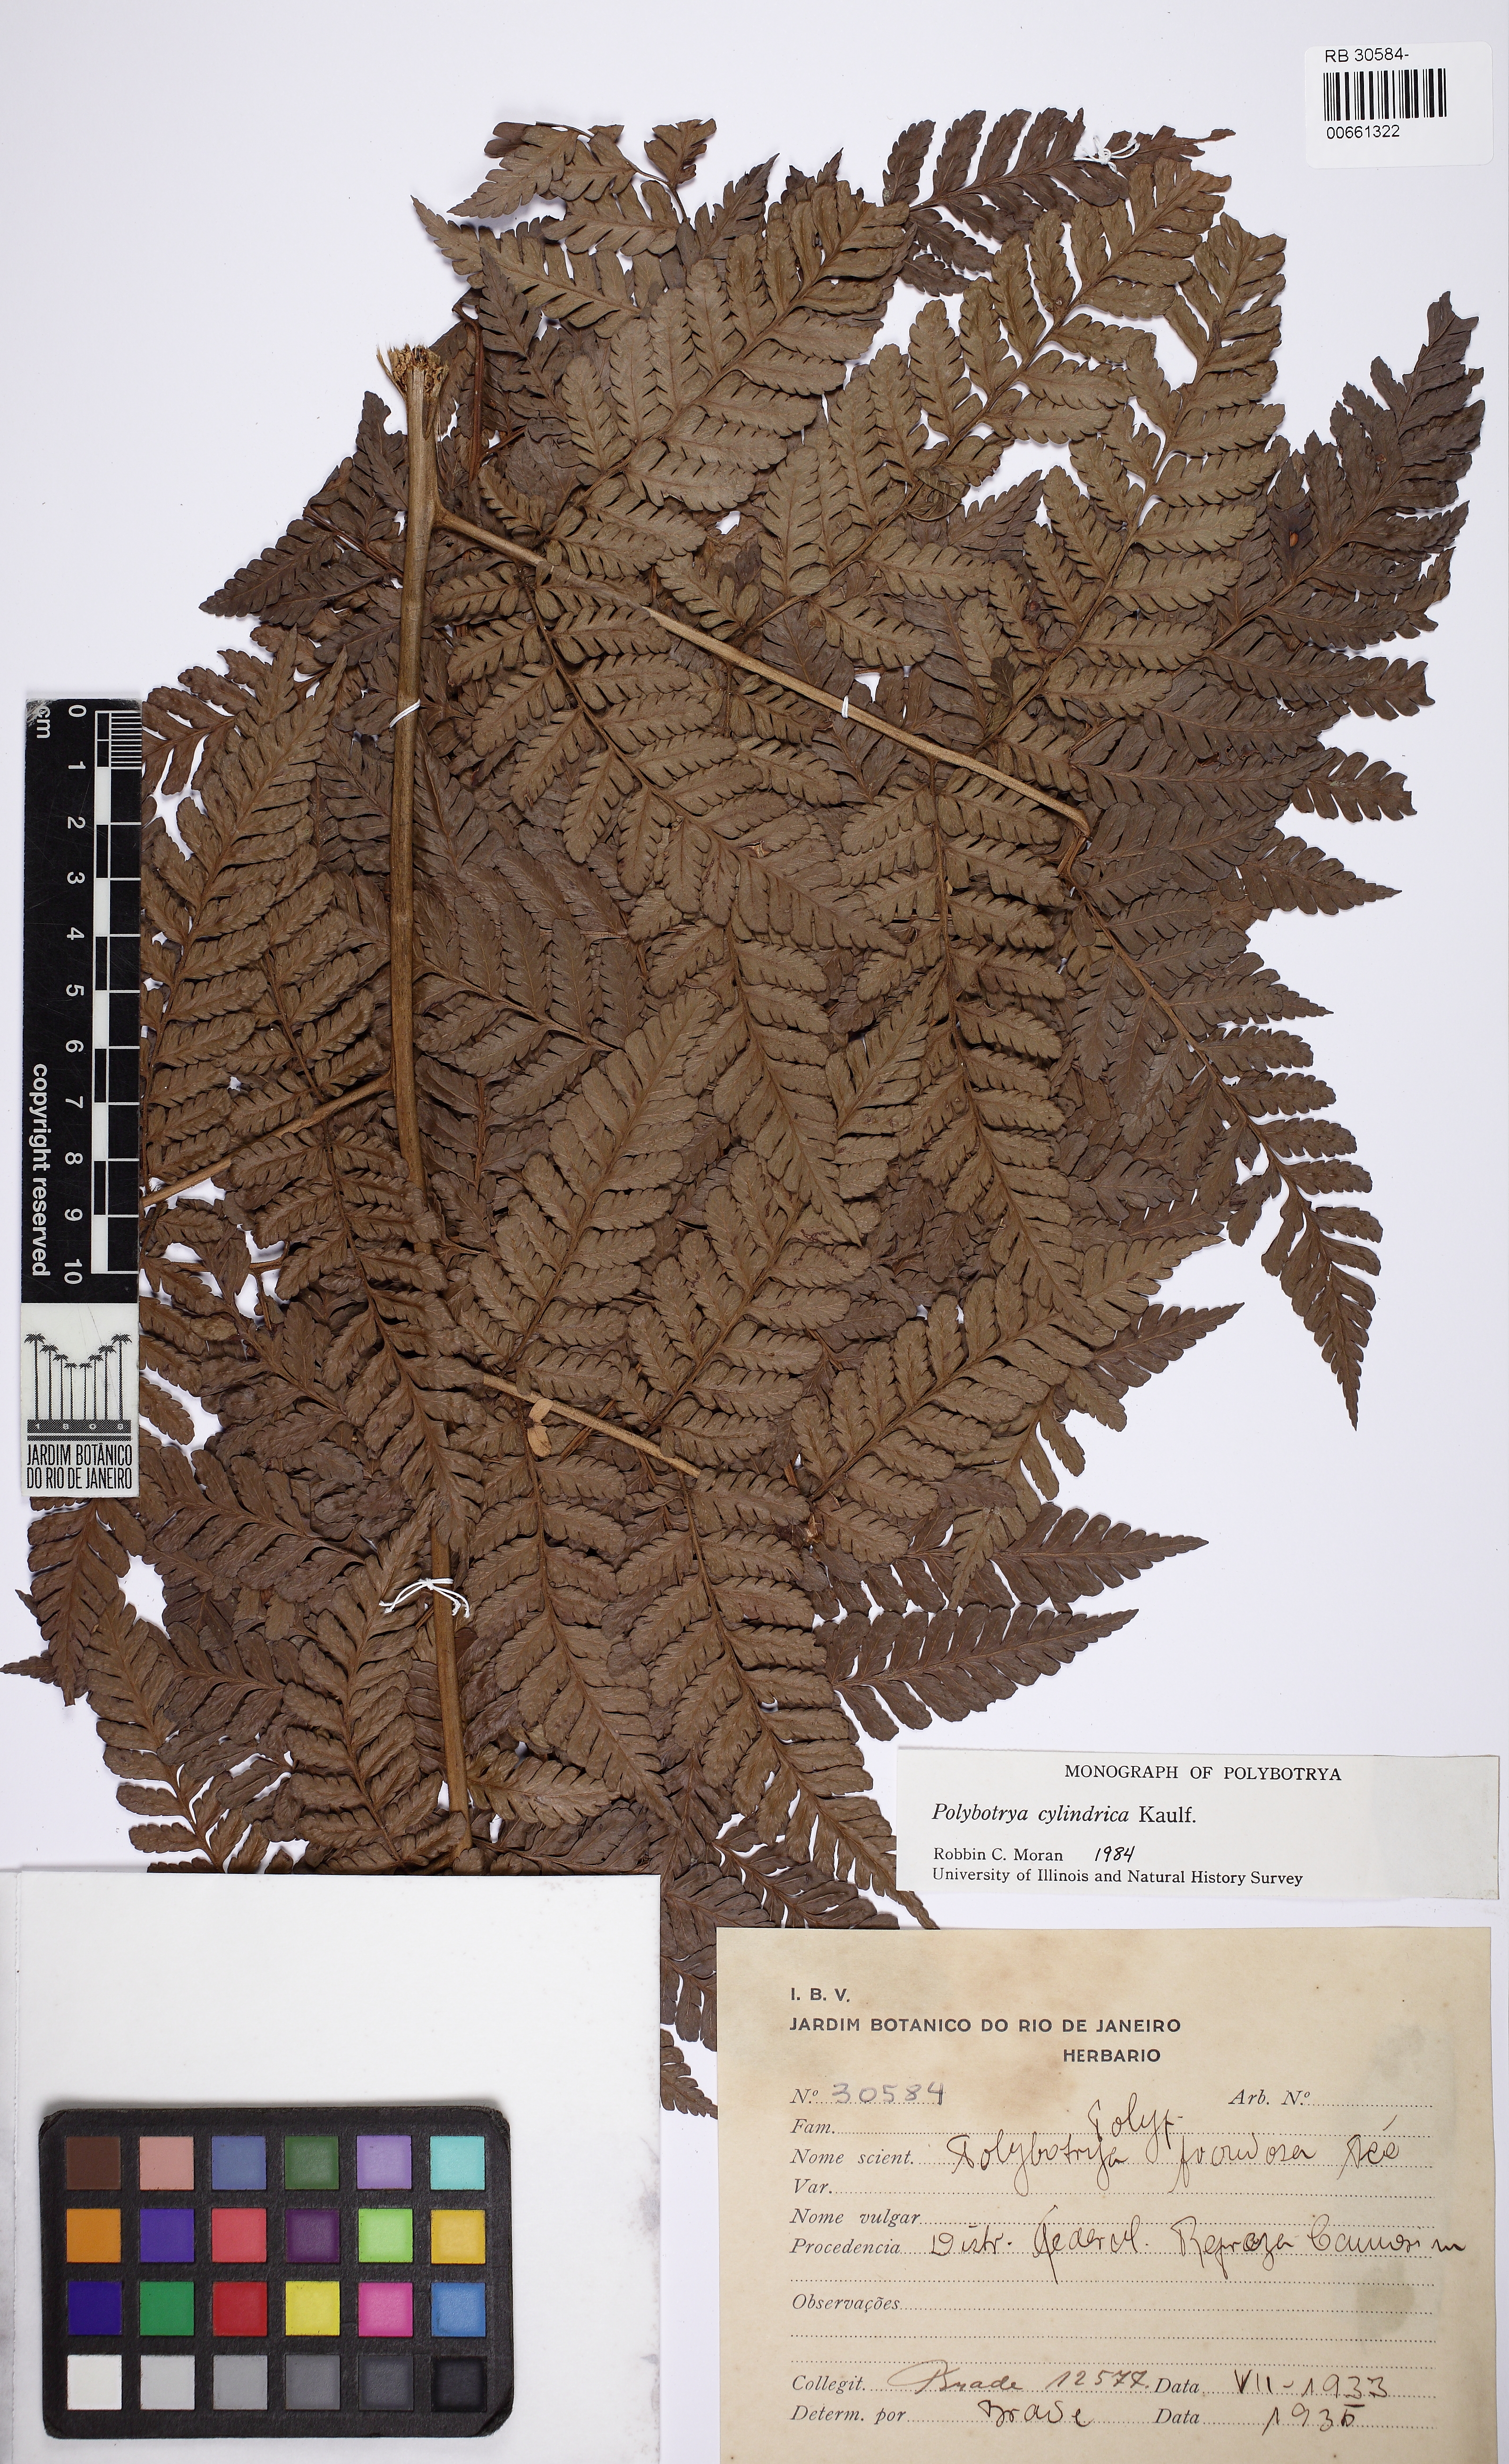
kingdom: Plantae
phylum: Tracheophyta
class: Polypodiopsida
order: Polypodiales
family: Dryopteridaceae
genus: Polybotrya
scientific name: Polybotrya cylindrica
